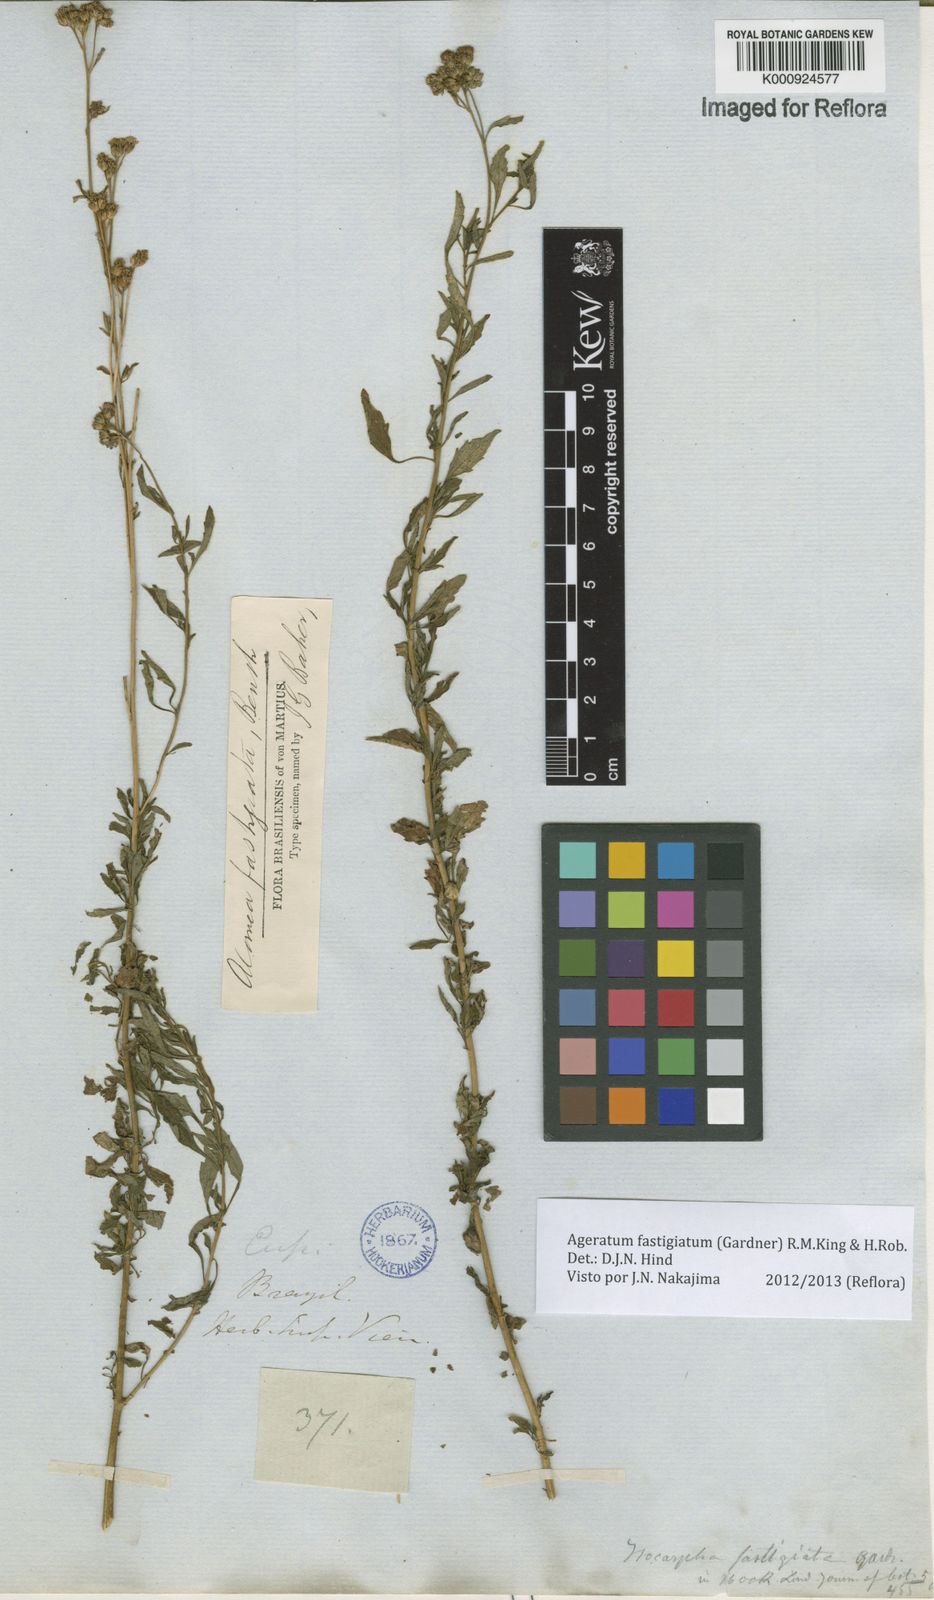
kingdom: Plantae
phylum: Tracheophyta
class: Magnoliopsida
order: Asterales
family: Asteraceae
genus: Ageratum
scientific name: Ageratum fastigiatum
